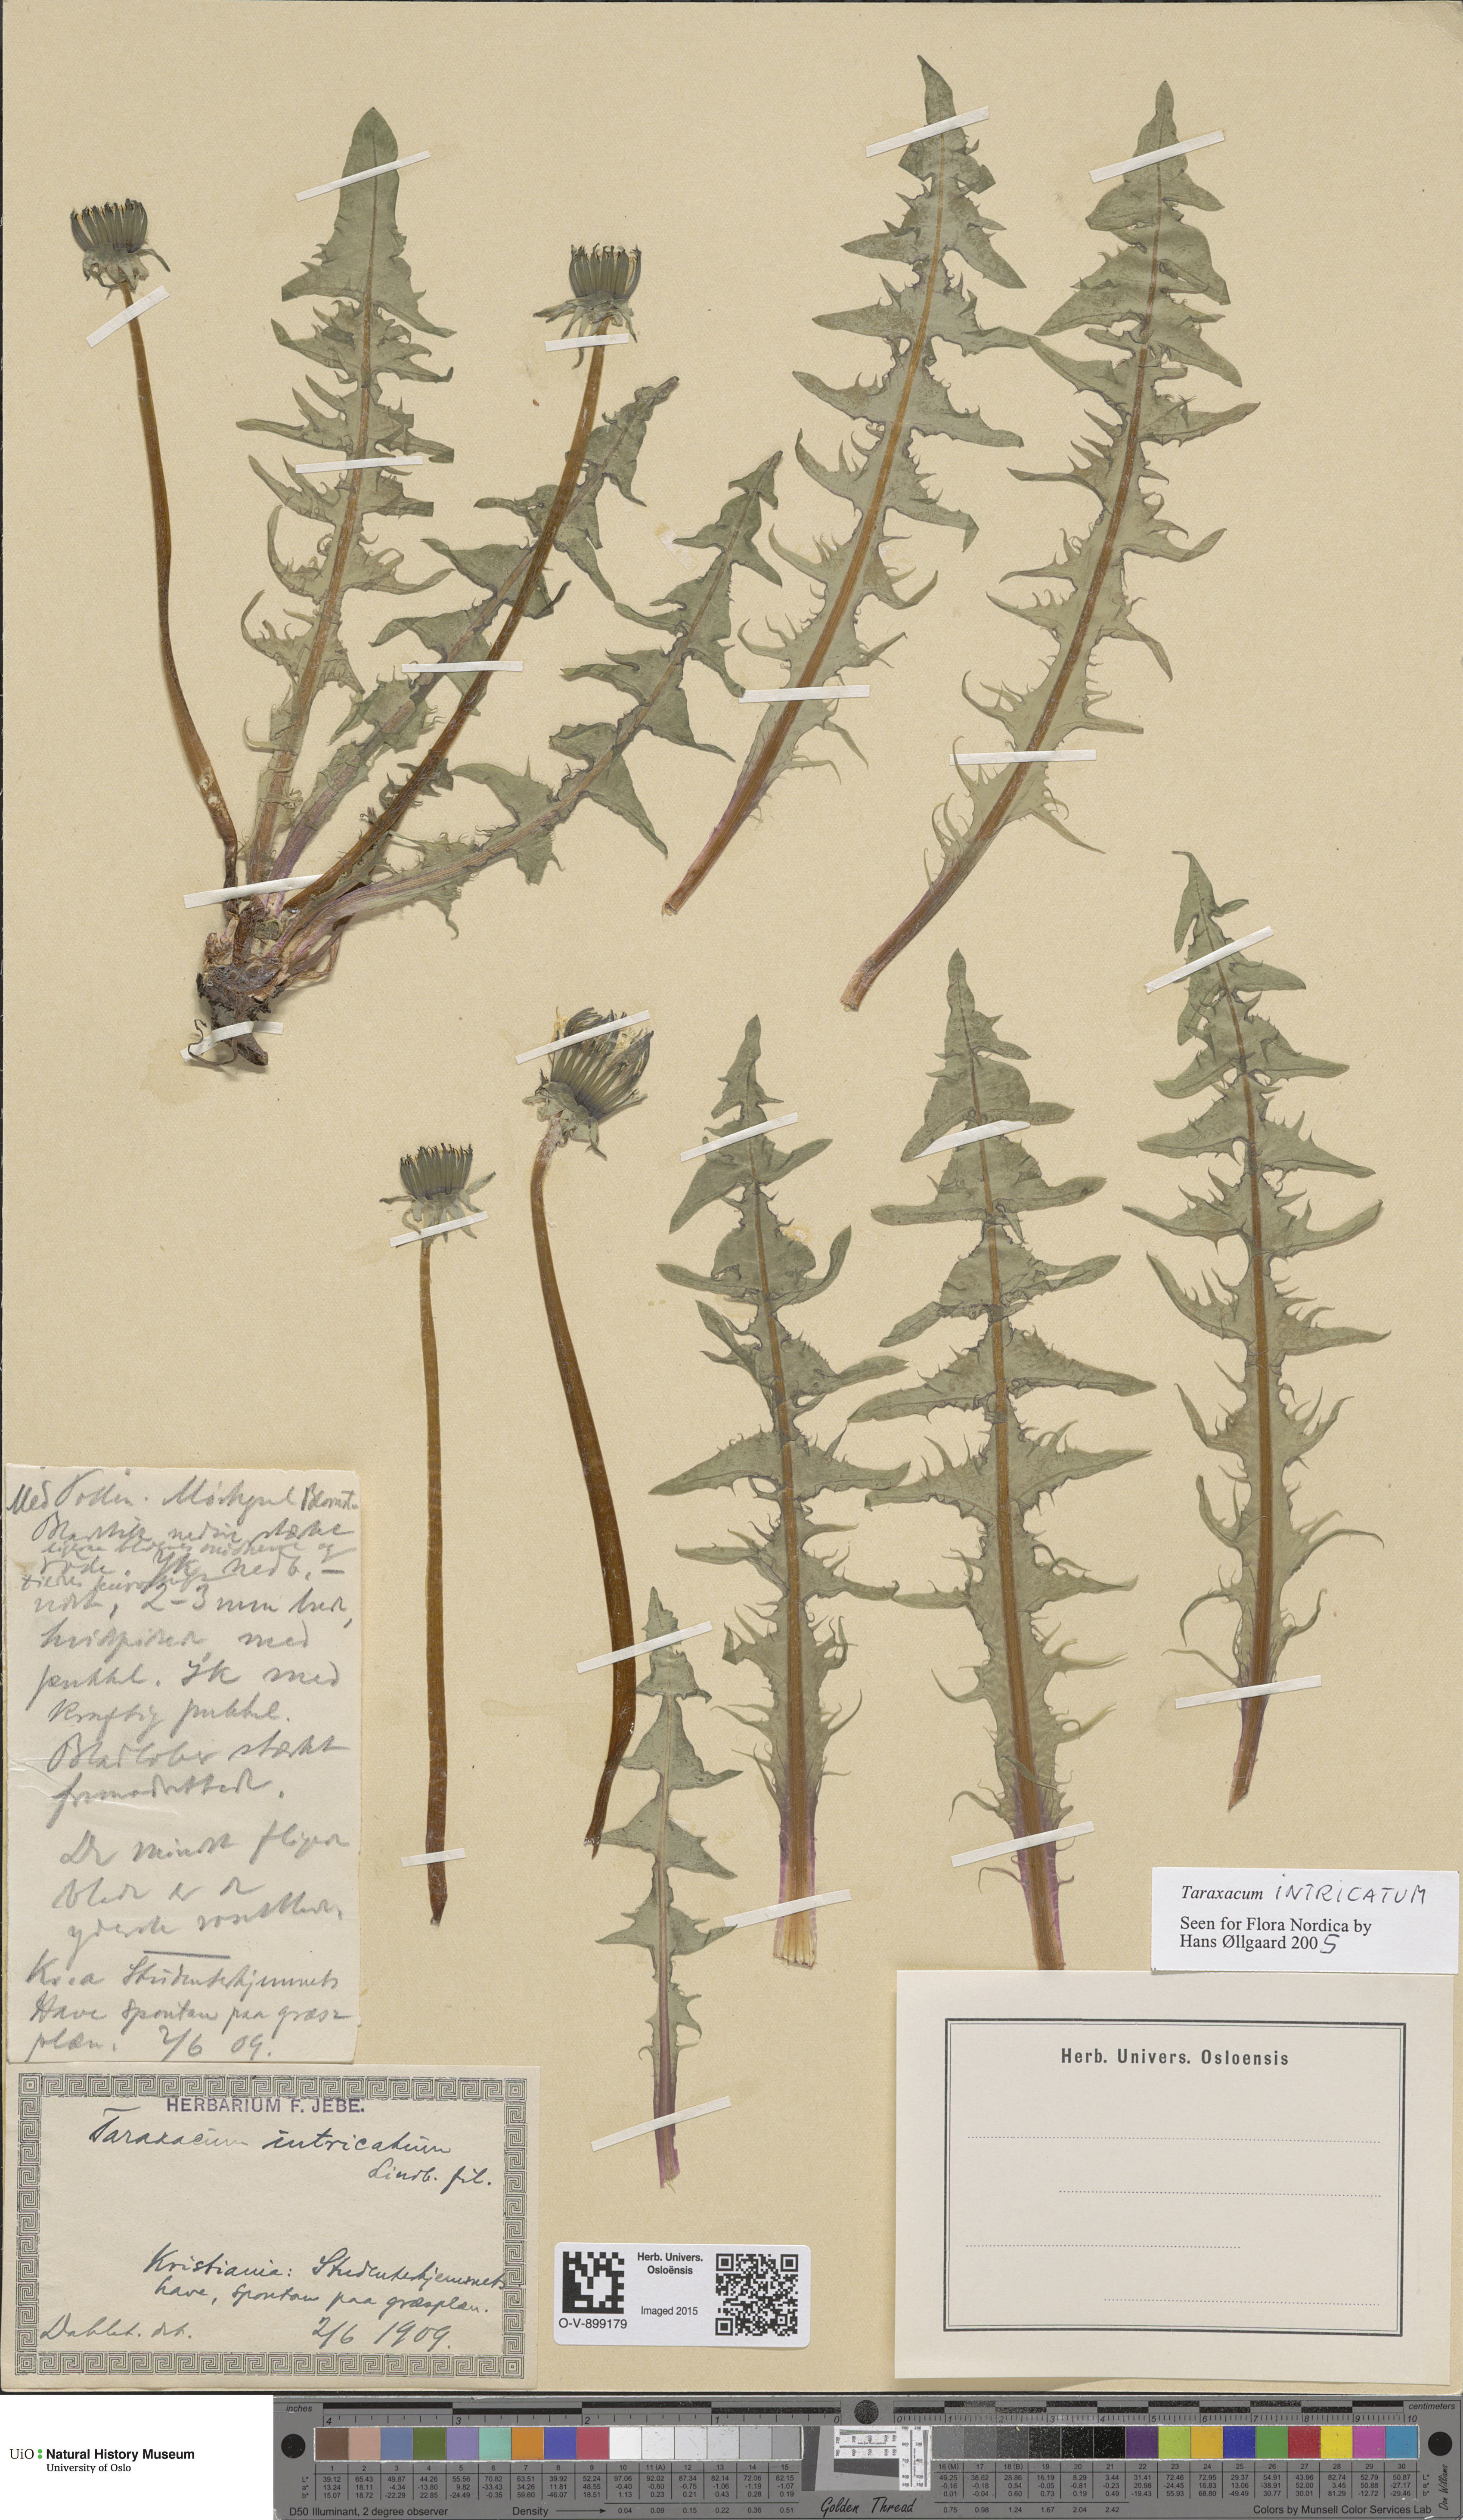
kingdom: Plantae
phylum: Tracheophyta
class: Magnoliopsida
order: Asterales
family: Asteraceae
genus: Taraxacum
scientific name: Taraxacum recurvum
